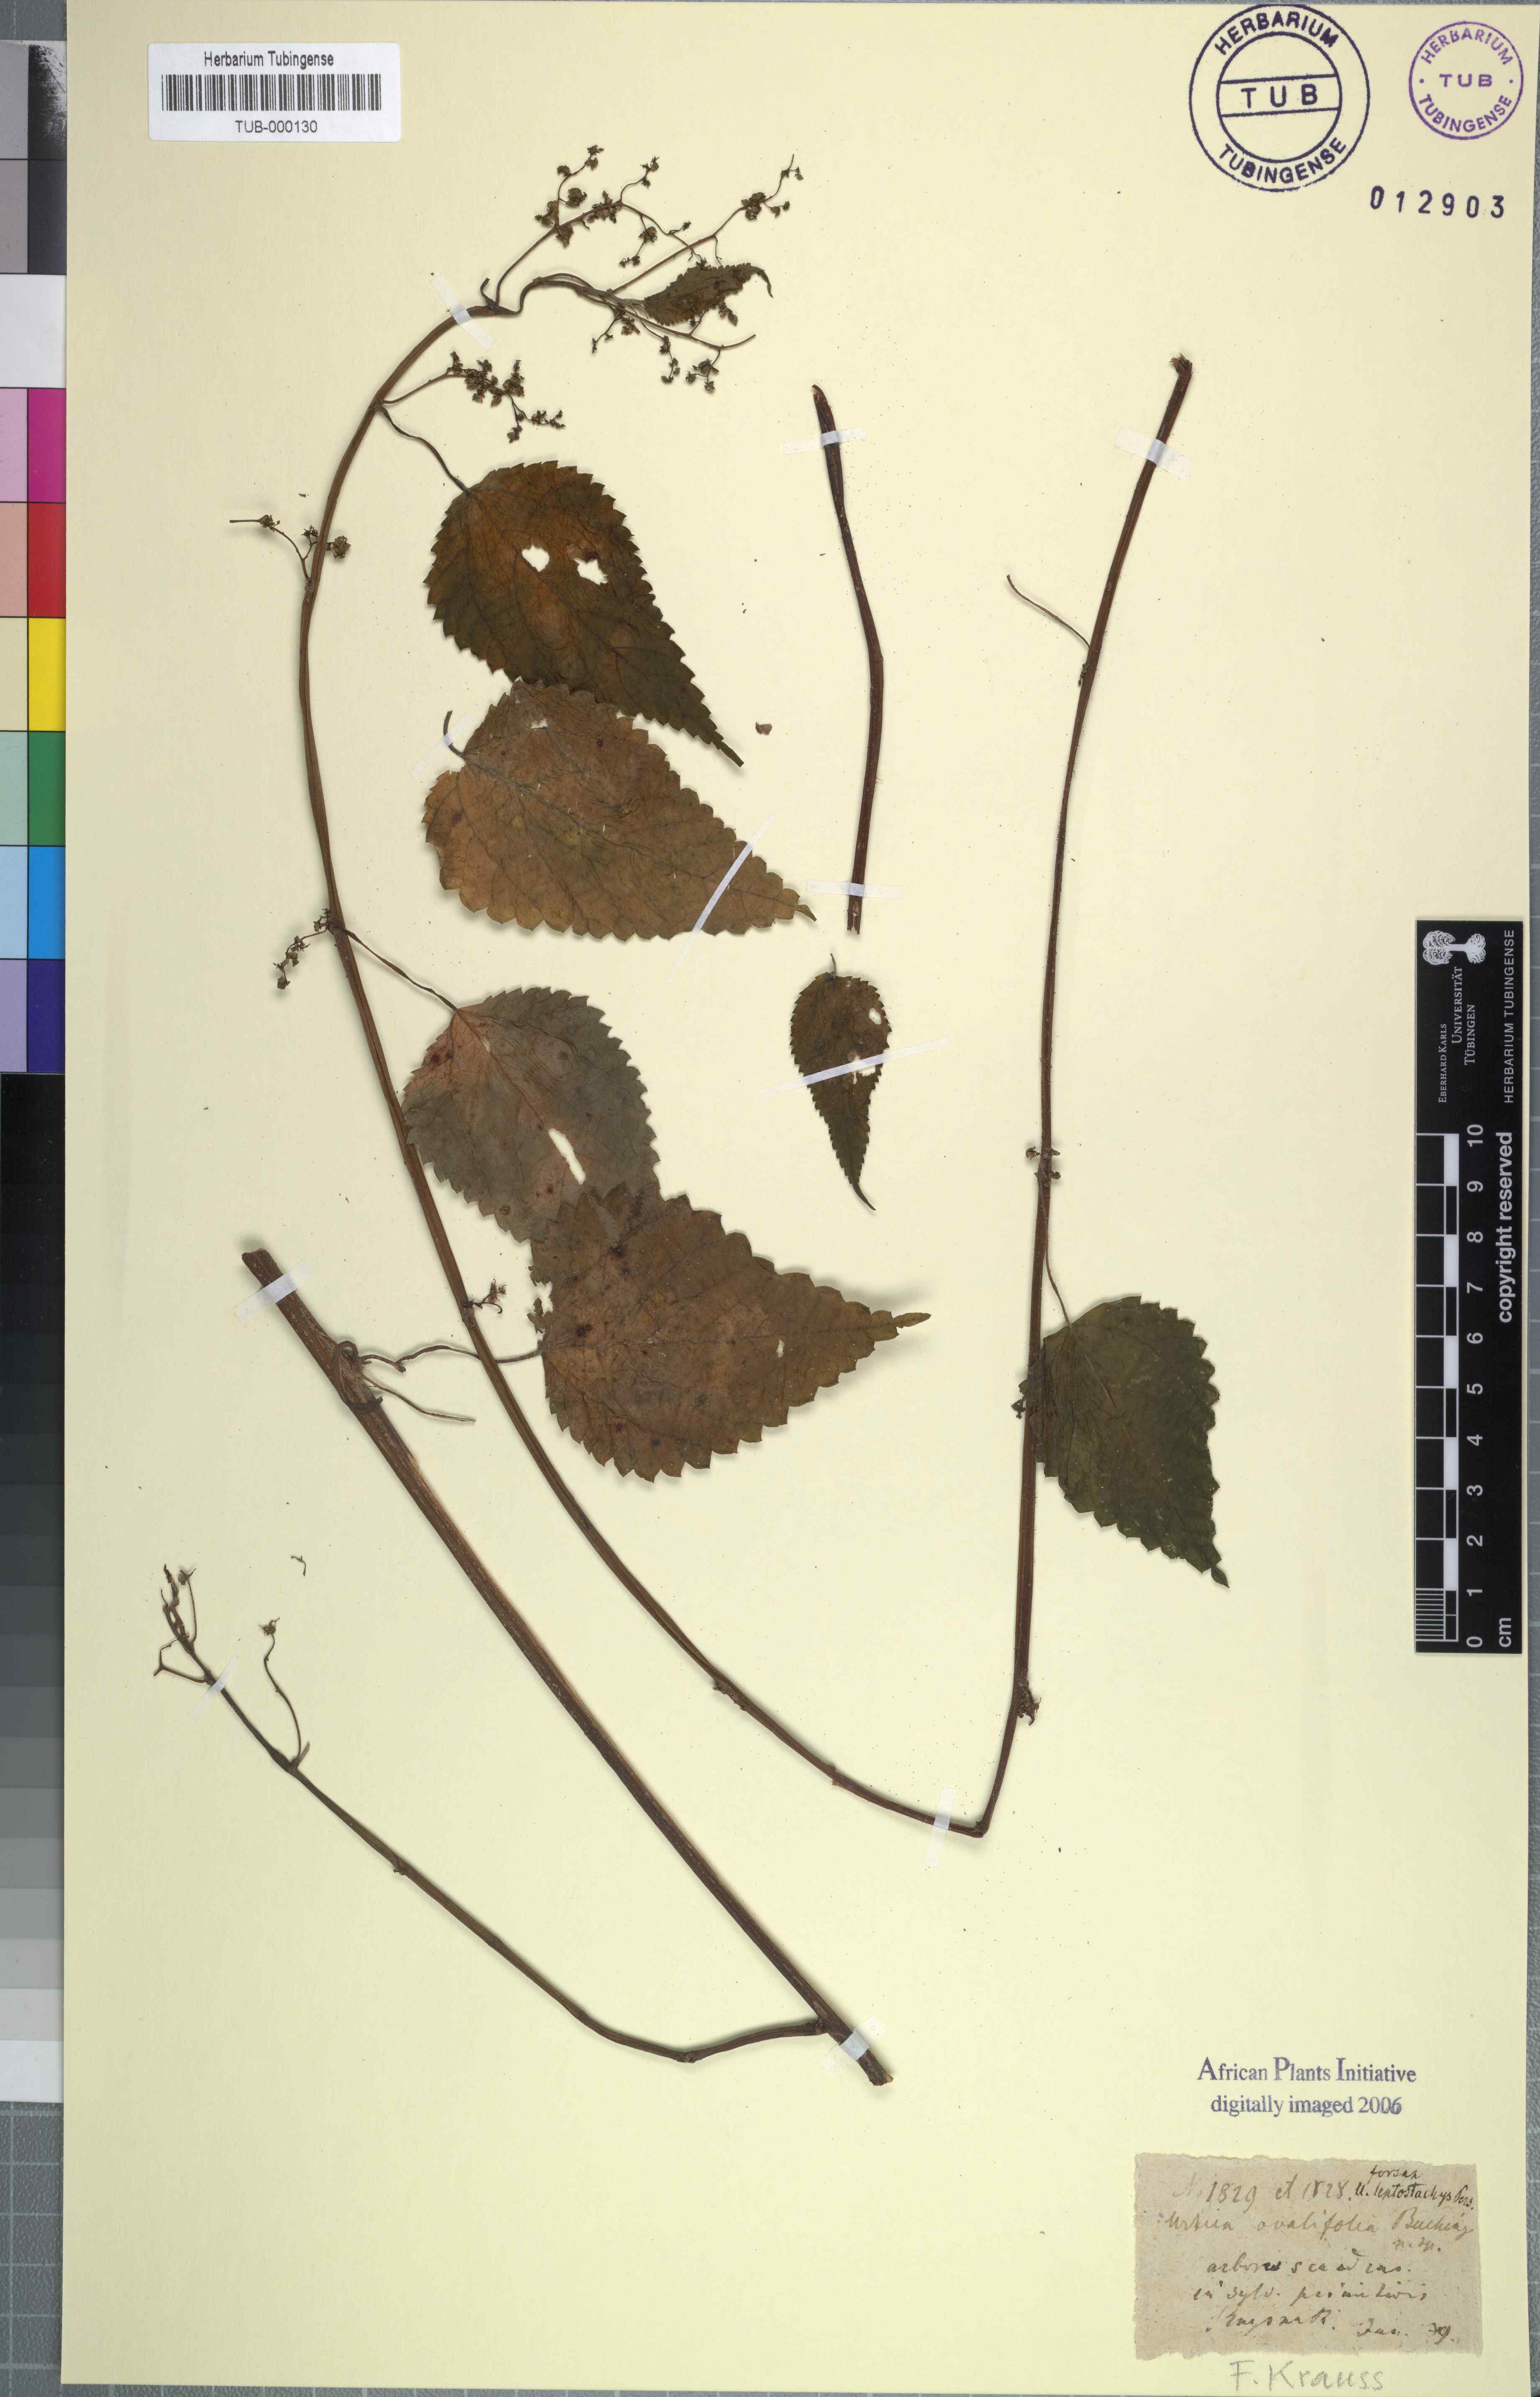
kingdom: Plantae
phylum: Tracheophyta
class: Magnoliopsida
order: Rosales
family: Urticaceae
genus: Didymodoxa
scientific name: Didymodoxa capensis
